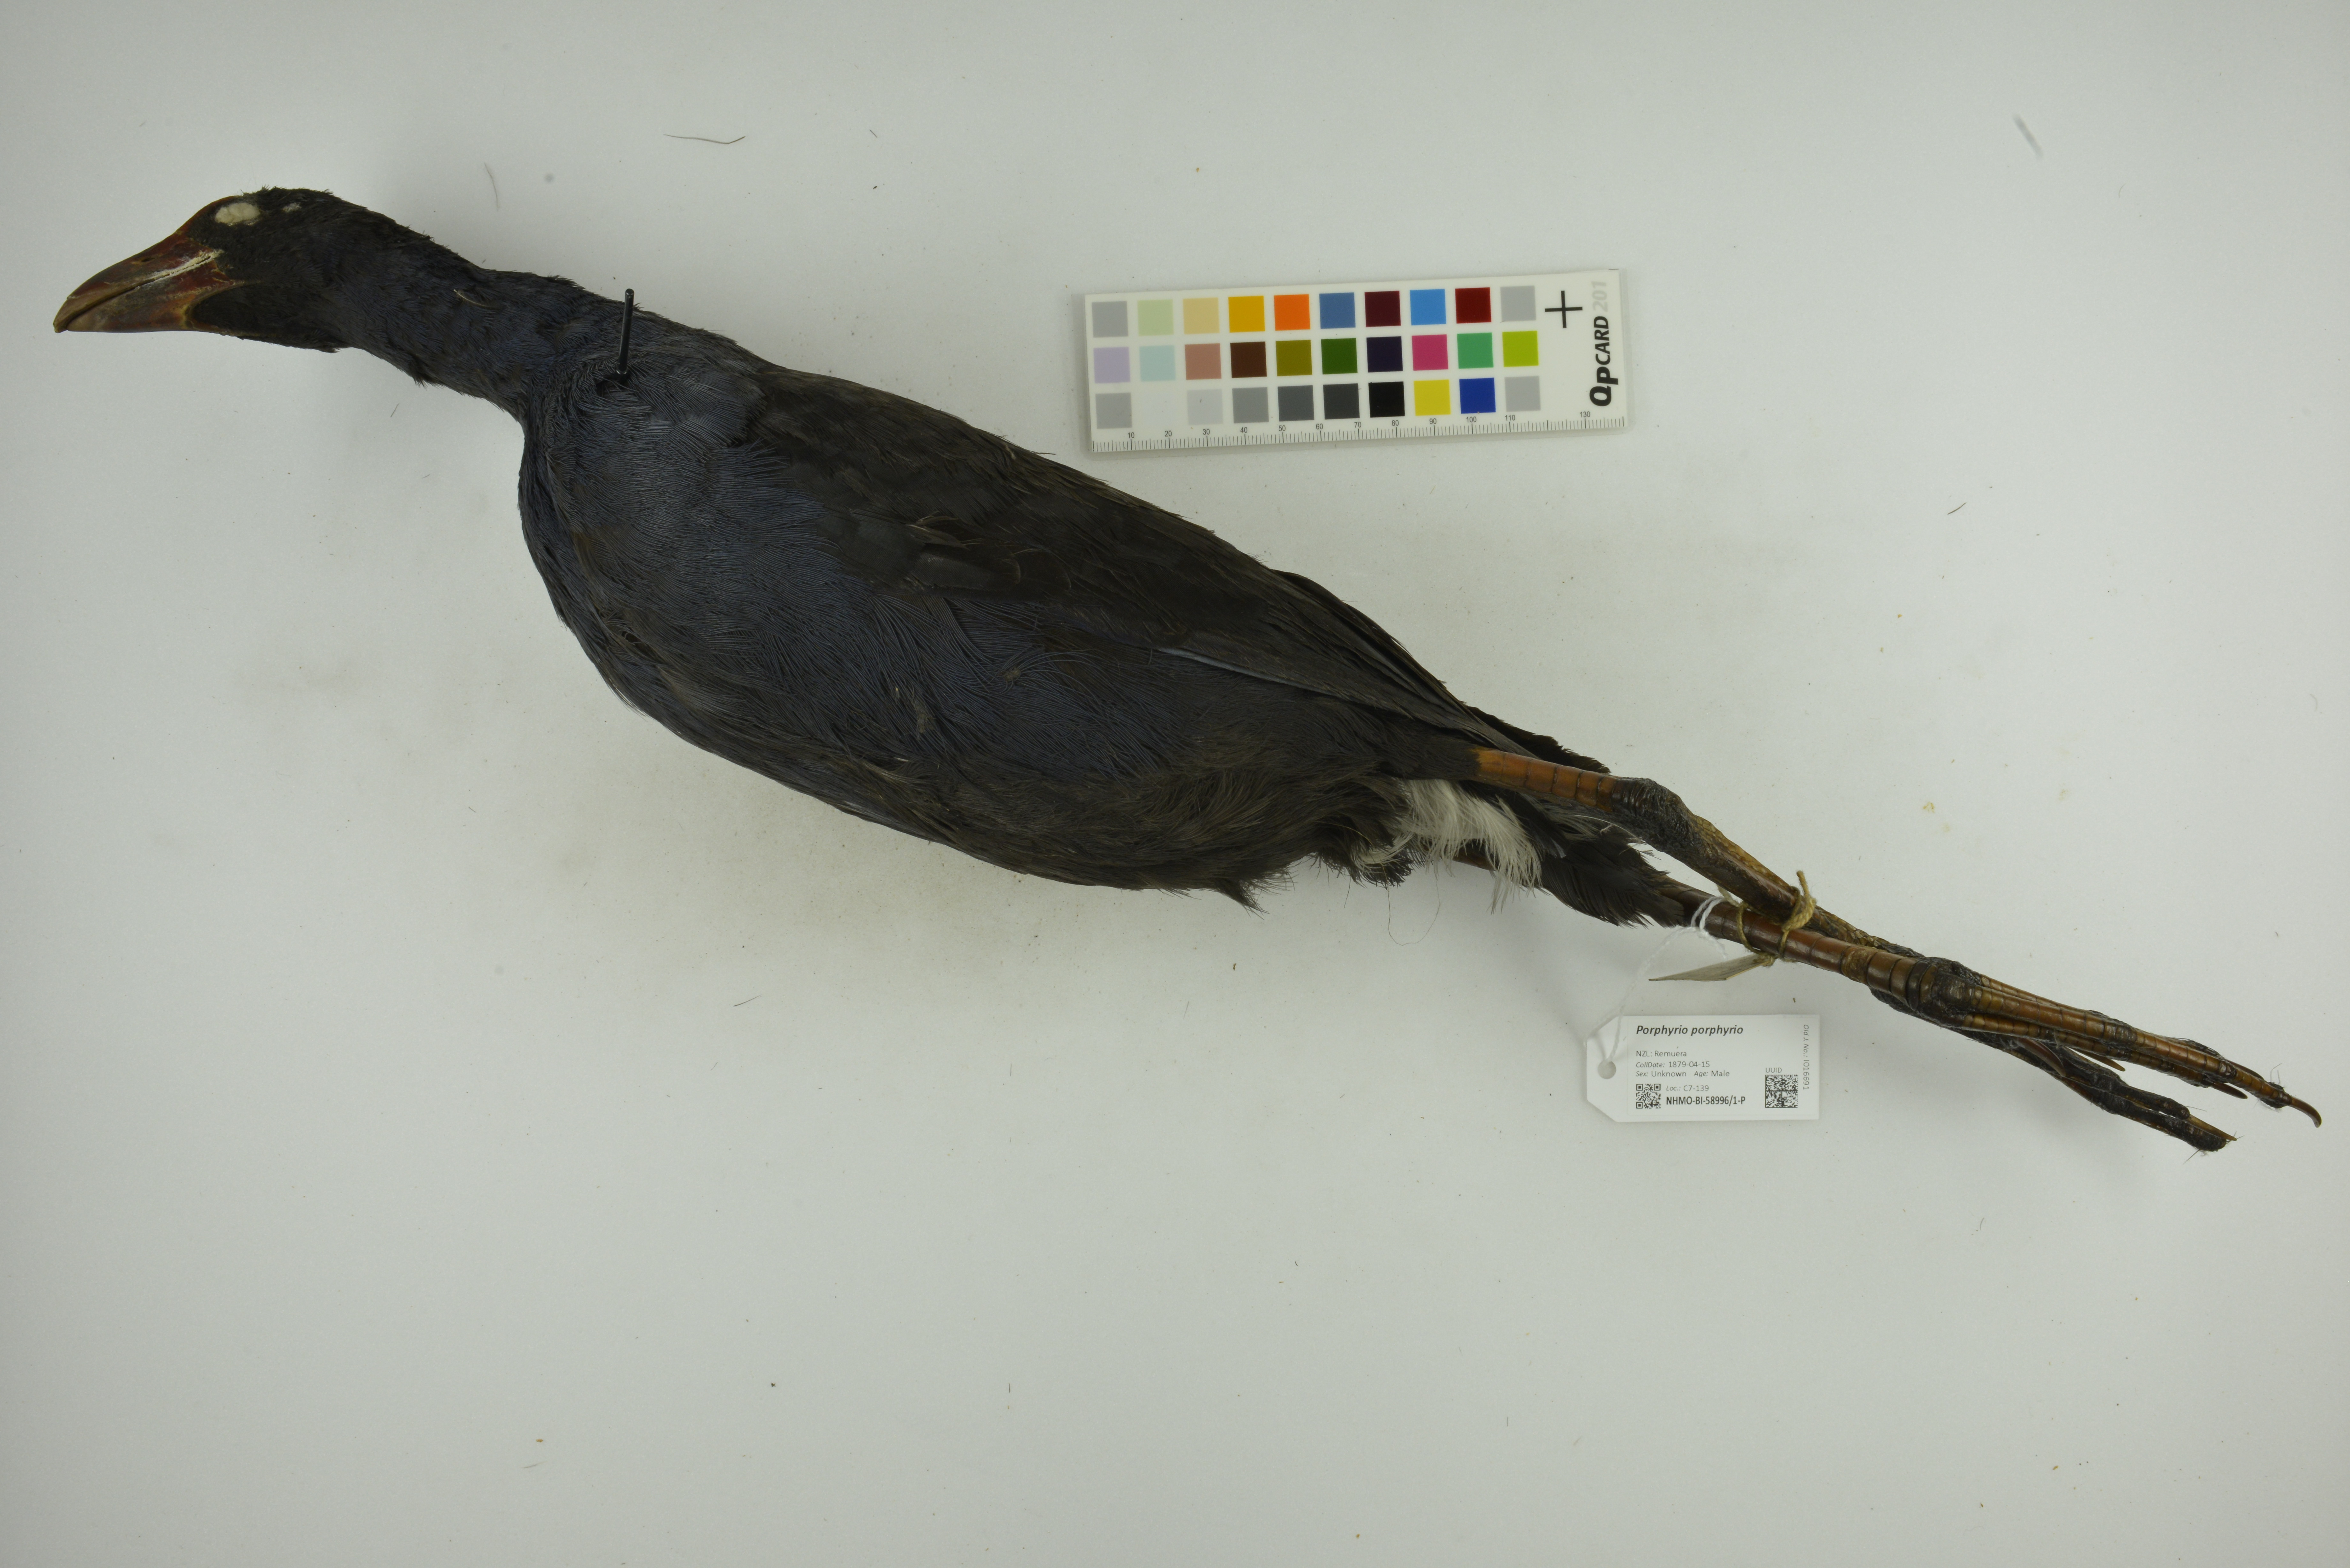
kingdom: Animalia
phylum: Chordata
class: Aves
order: Gruiformes
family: Rallidae
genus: Porphyrio
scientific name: Porphyrio porphyrio
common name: Purple swamphen
